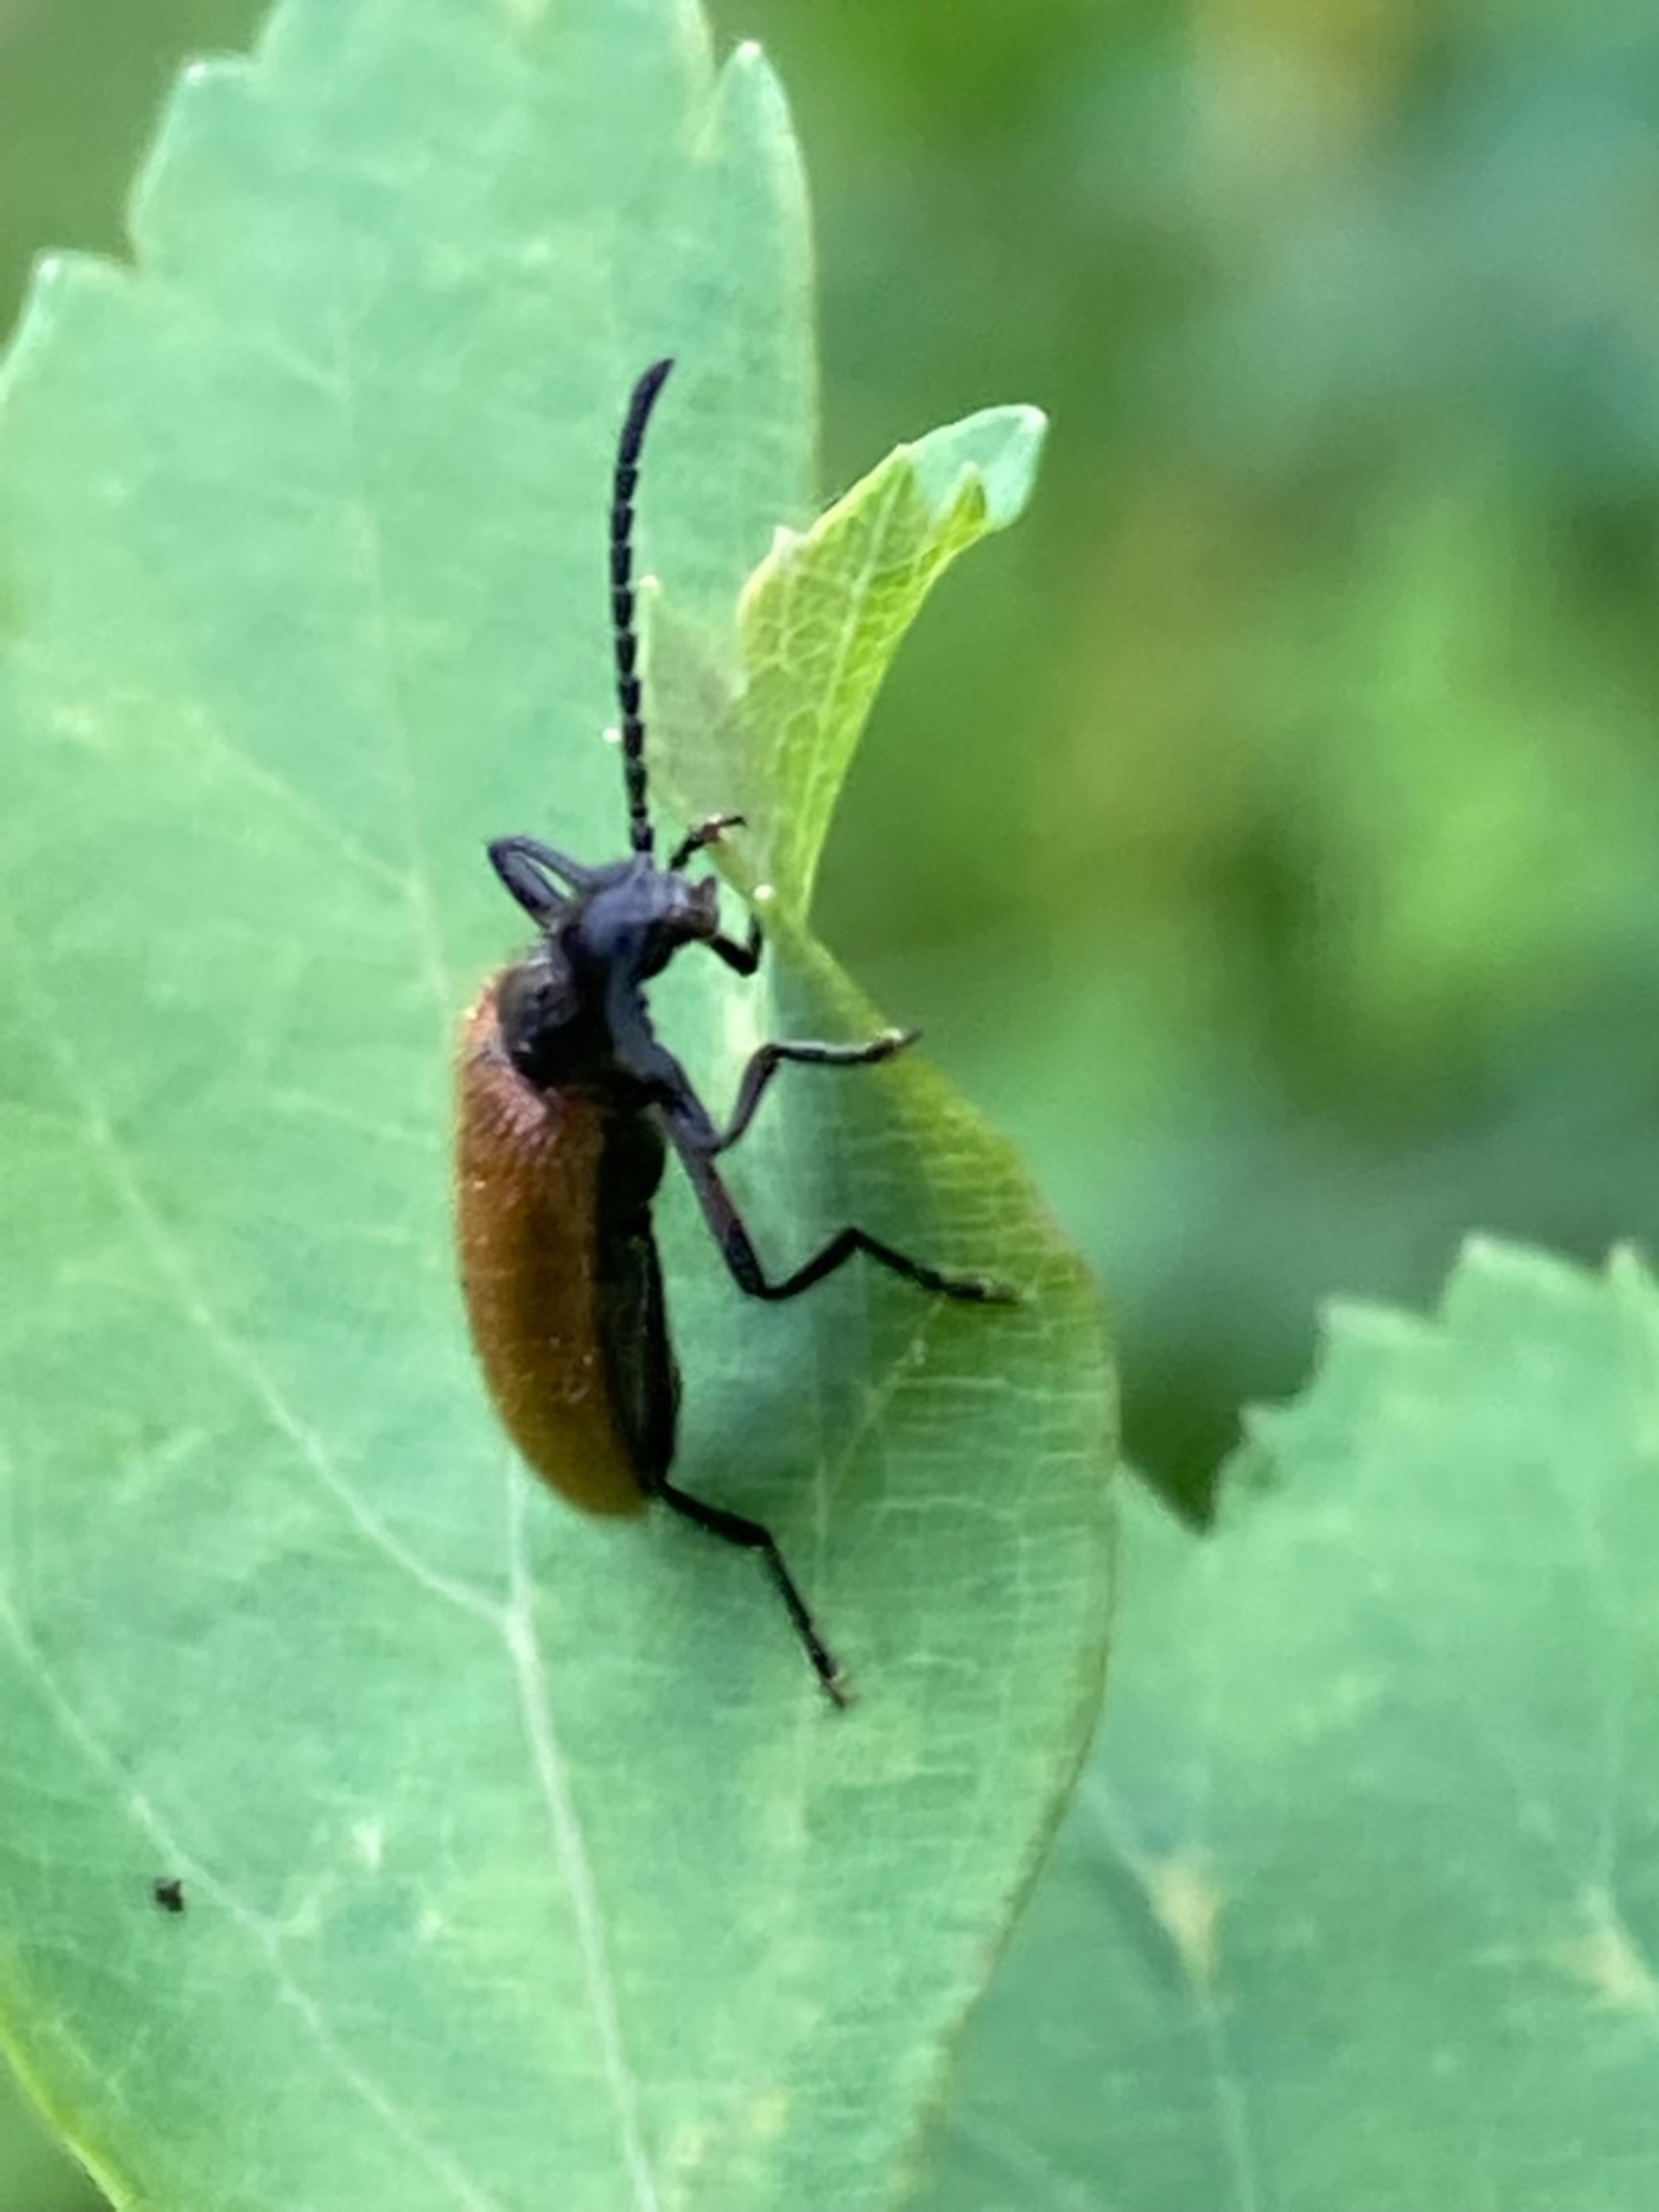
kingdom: Animalia
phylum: Arthropoda
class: Insecta
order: Coleoptera
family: Tenebrionidae
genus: Lagria
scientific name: Lagria hirta
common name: Håret skyggebille
